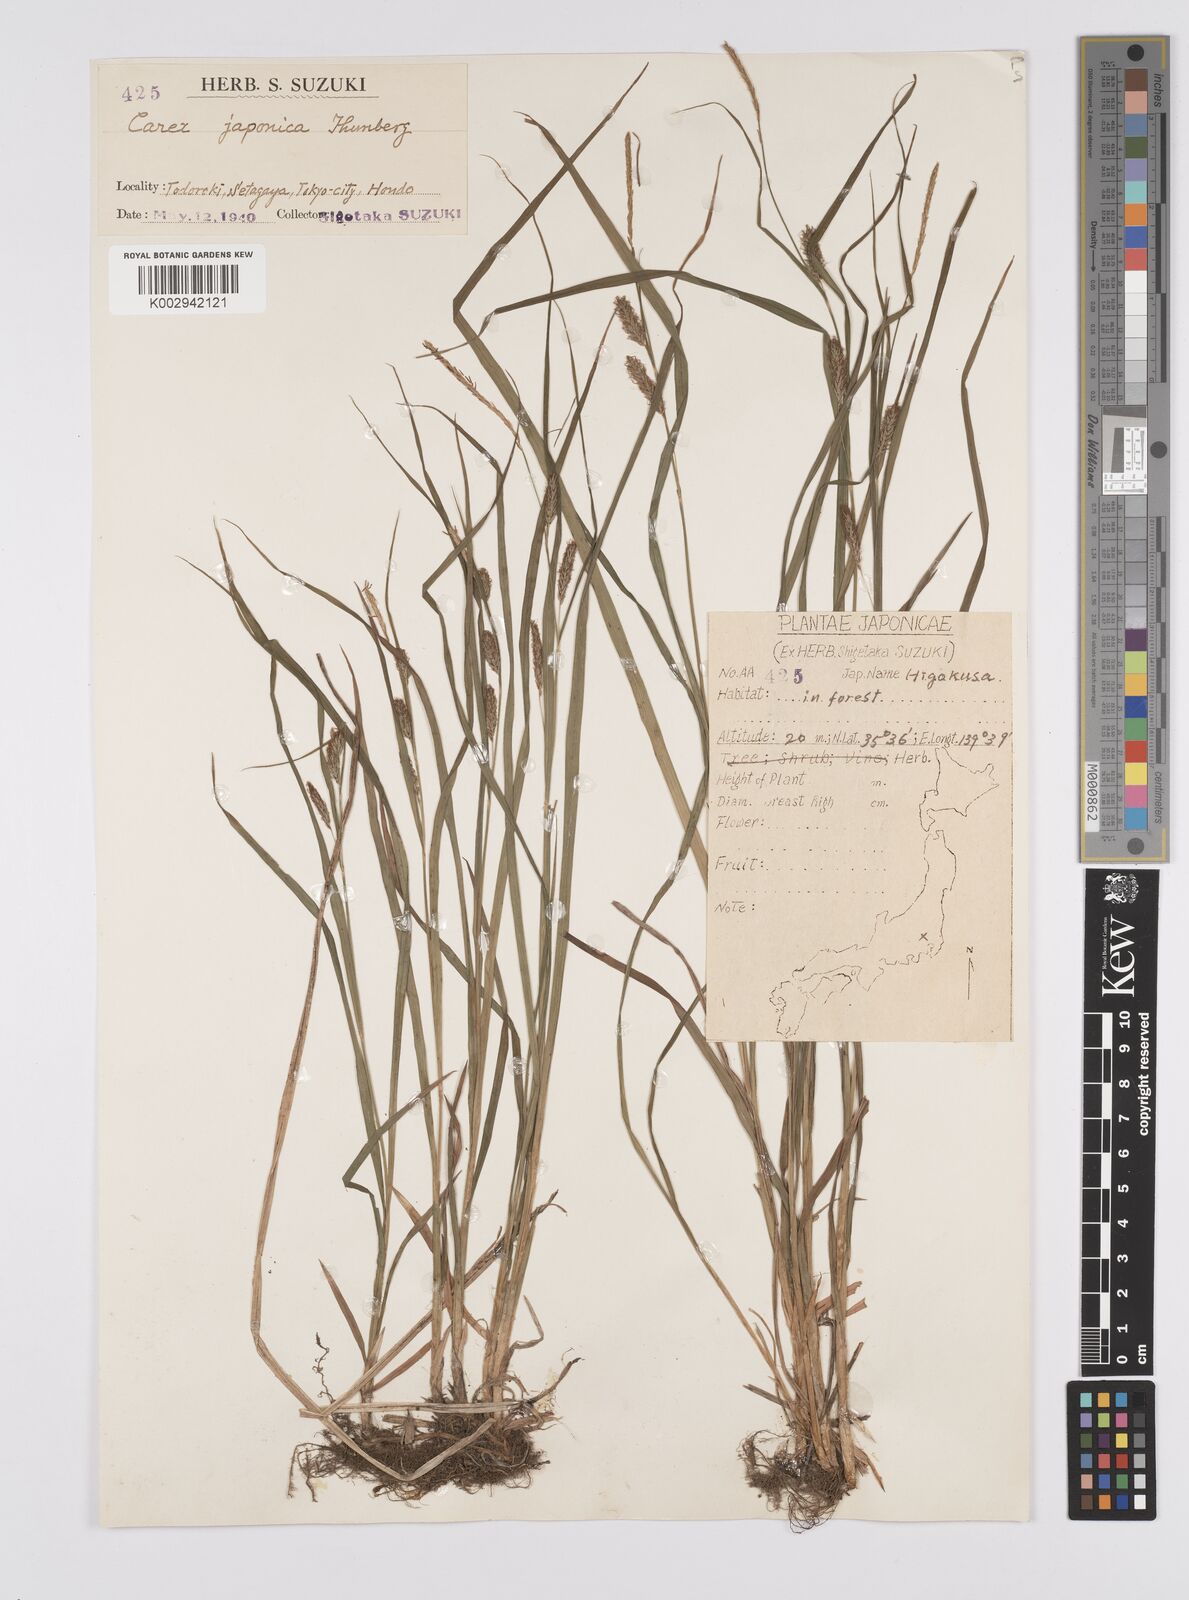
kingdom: Plantae
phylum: Tracheophyta
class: Liliopsida
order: Poales
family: Cyperaceae
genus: Carex
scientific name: Carex japonica
